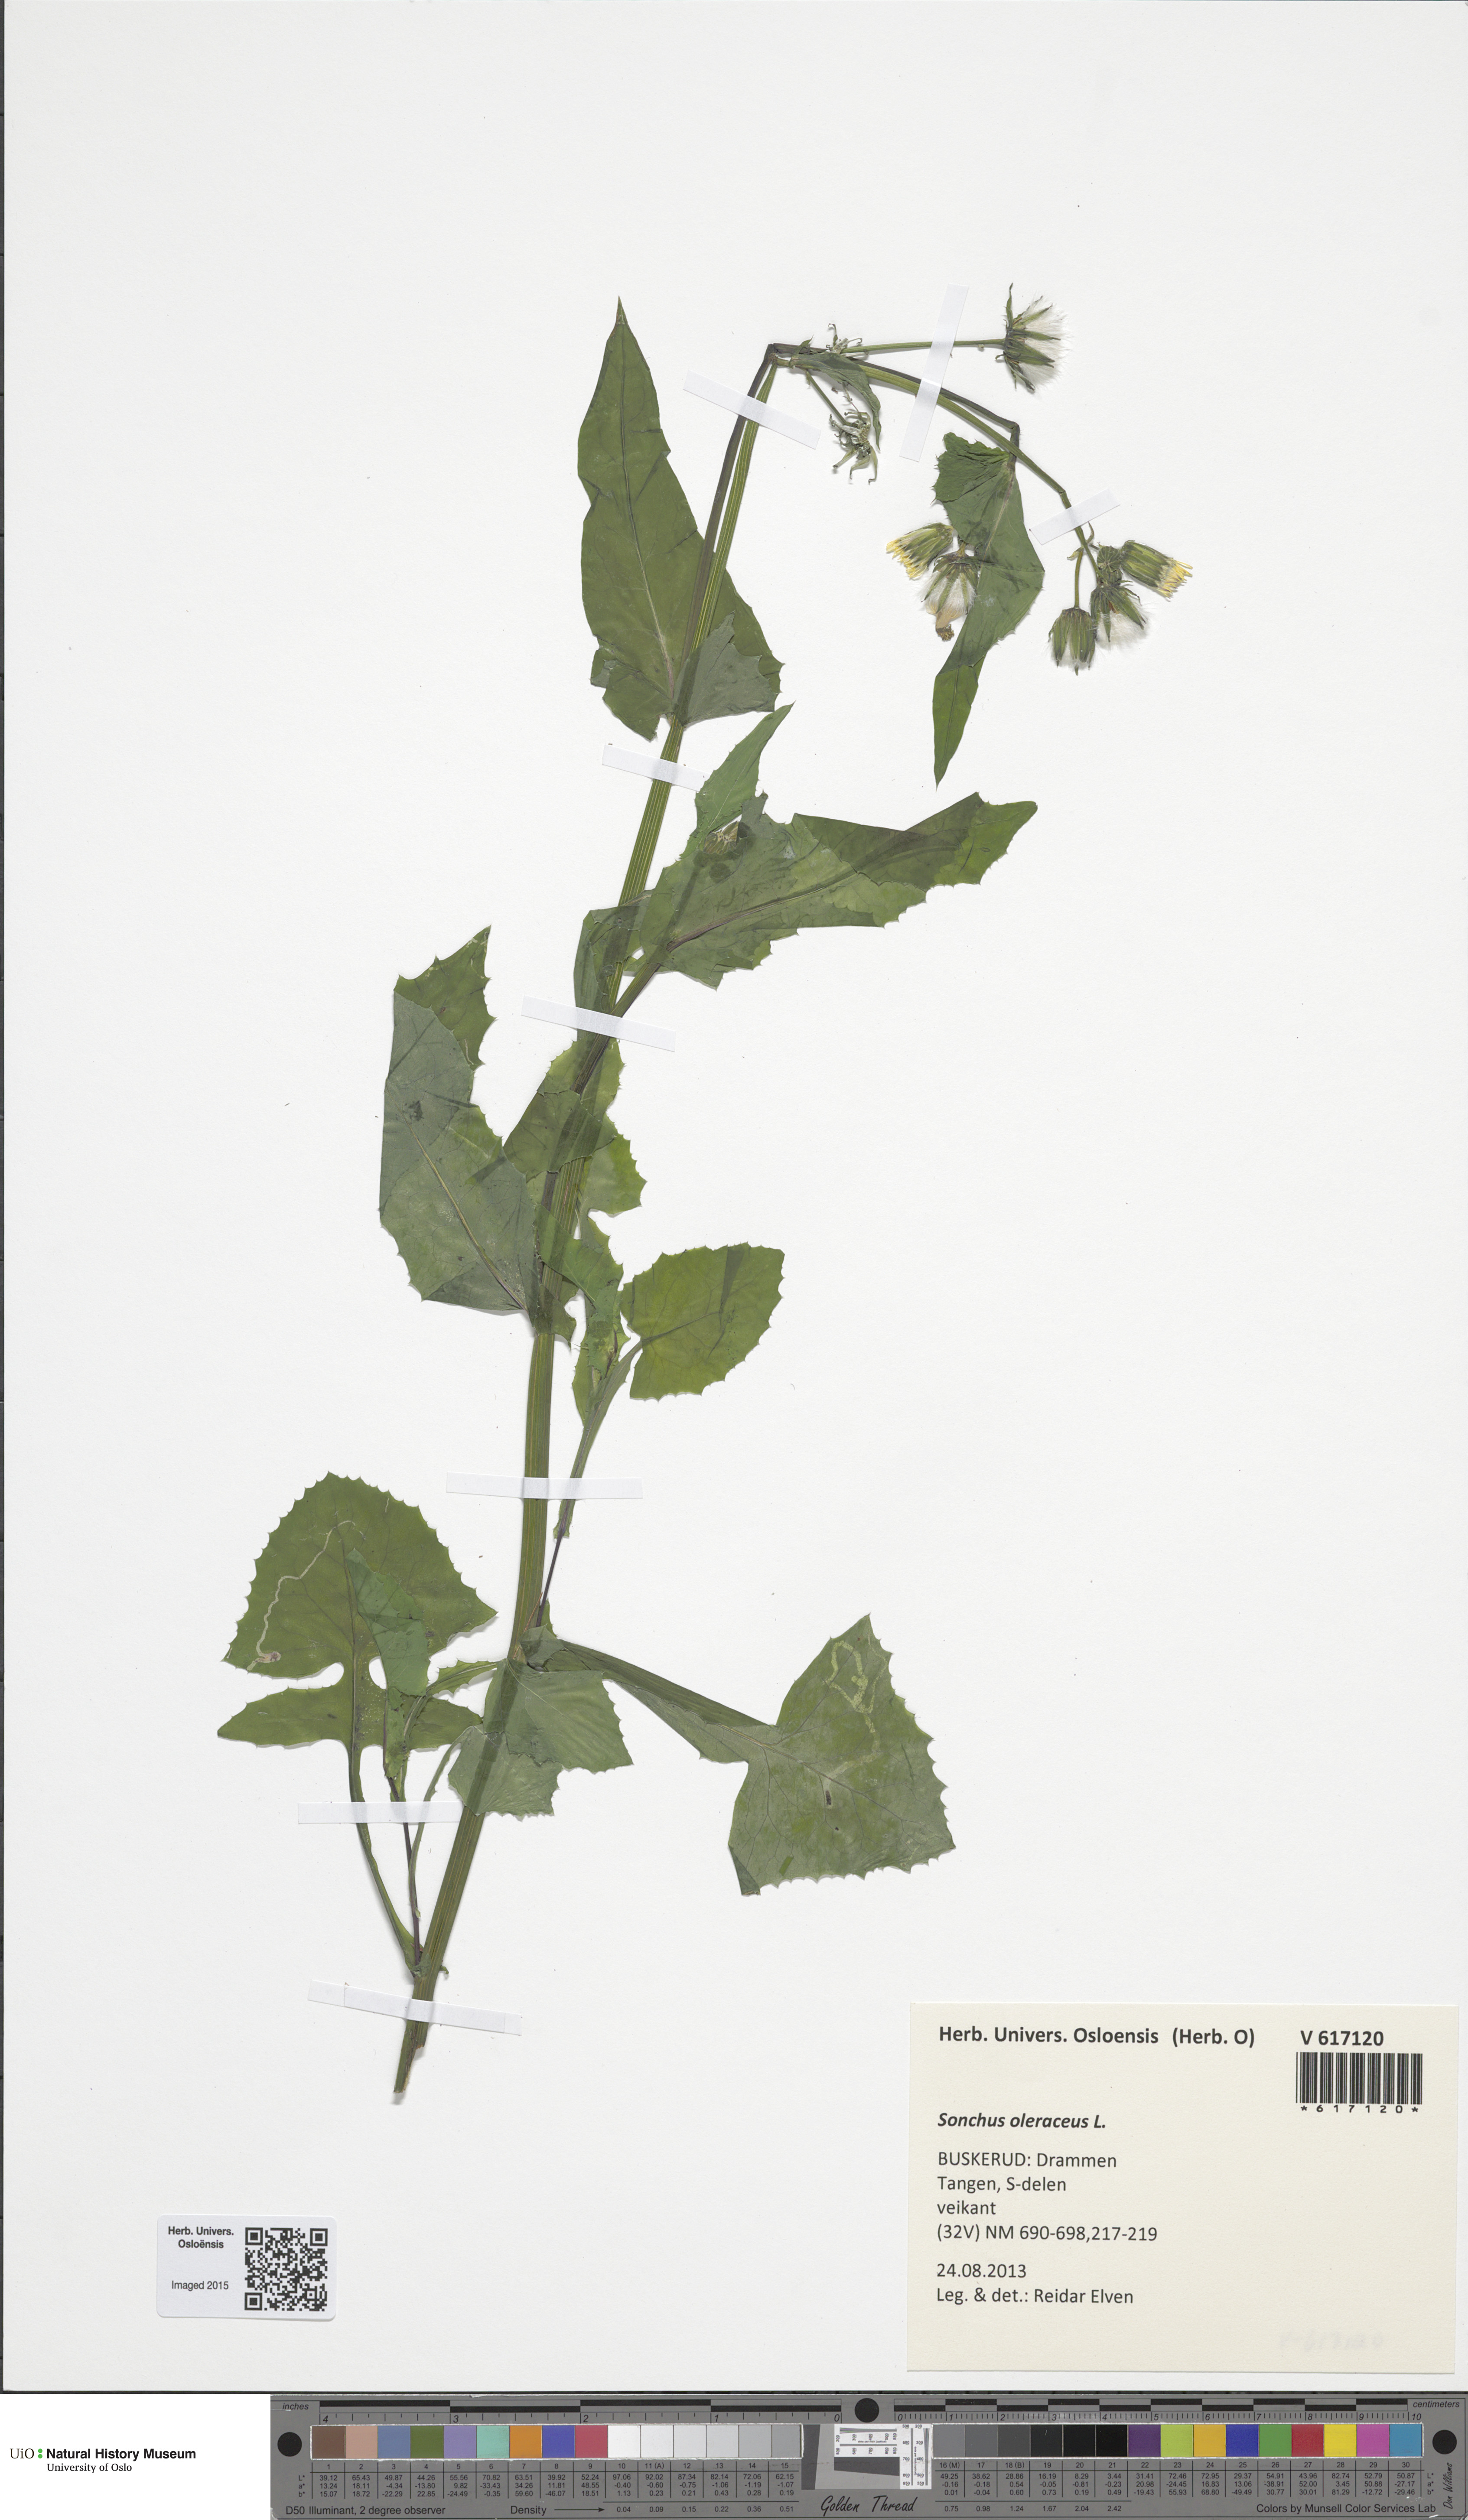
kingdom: Plantae
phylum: Tracheophyta
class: Magnoliopsida
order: Asterales
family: Asteraceae
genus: Sonchus
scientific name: Sonchus oleraceus
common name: Common sowthistle
